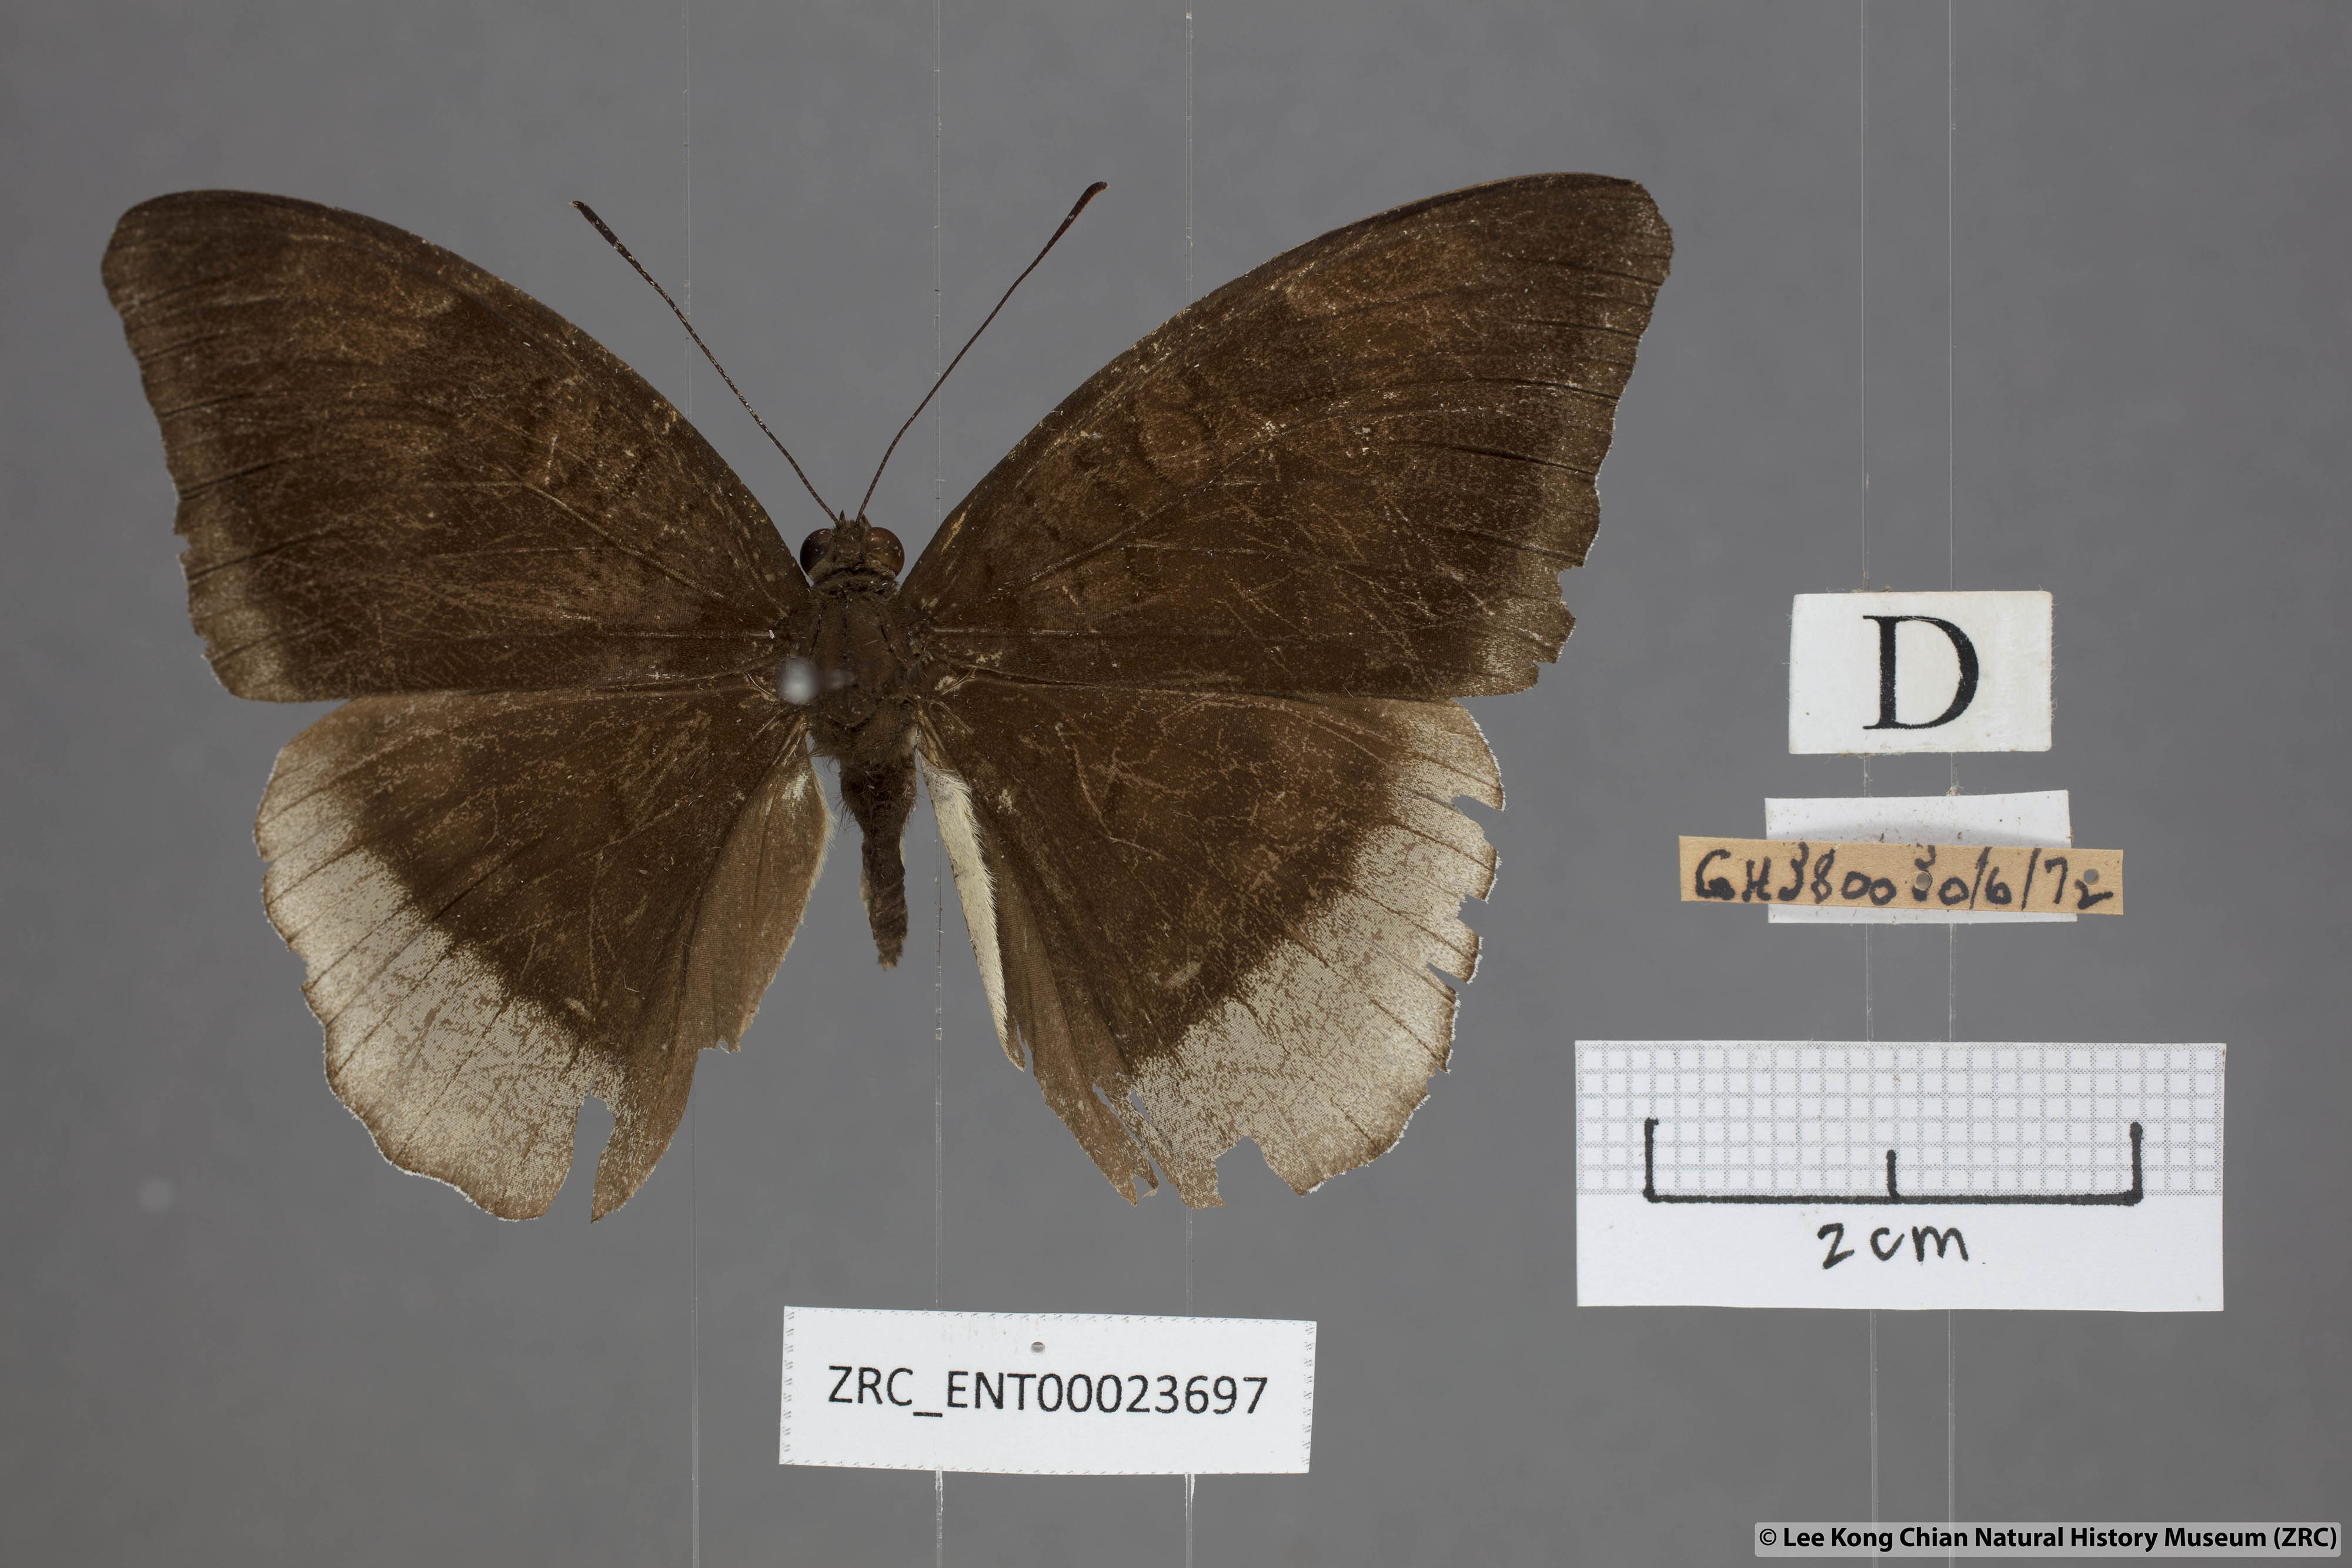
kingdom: Animalia
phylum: Arthropoda
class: Insecta
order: Lepidoptera
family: Nymphalidae
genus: Tanaecia
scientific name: Tanaecia lepidea
